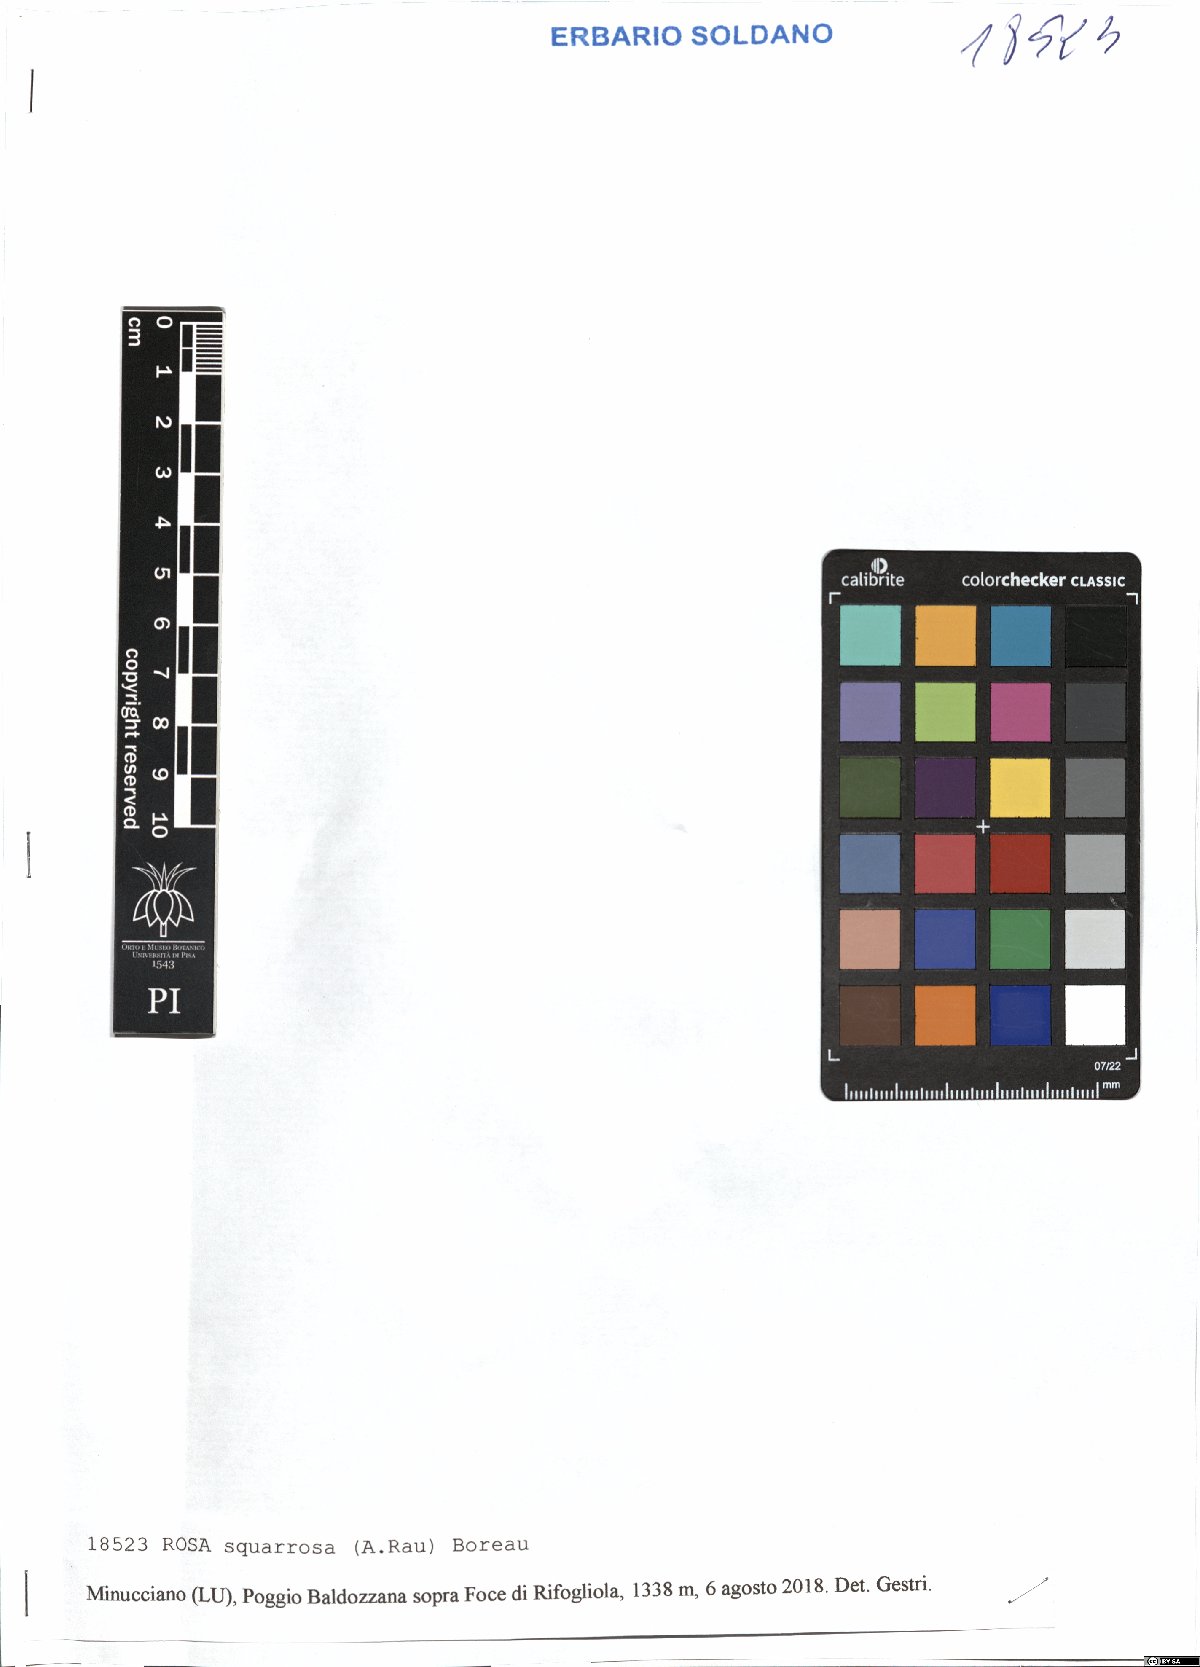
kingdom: Plantae
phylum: Tracheophyta
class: Magnoliopsida
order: Rosales
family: Rosaceae
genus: Rosa
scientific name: Rosa canina
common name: Dog rose
